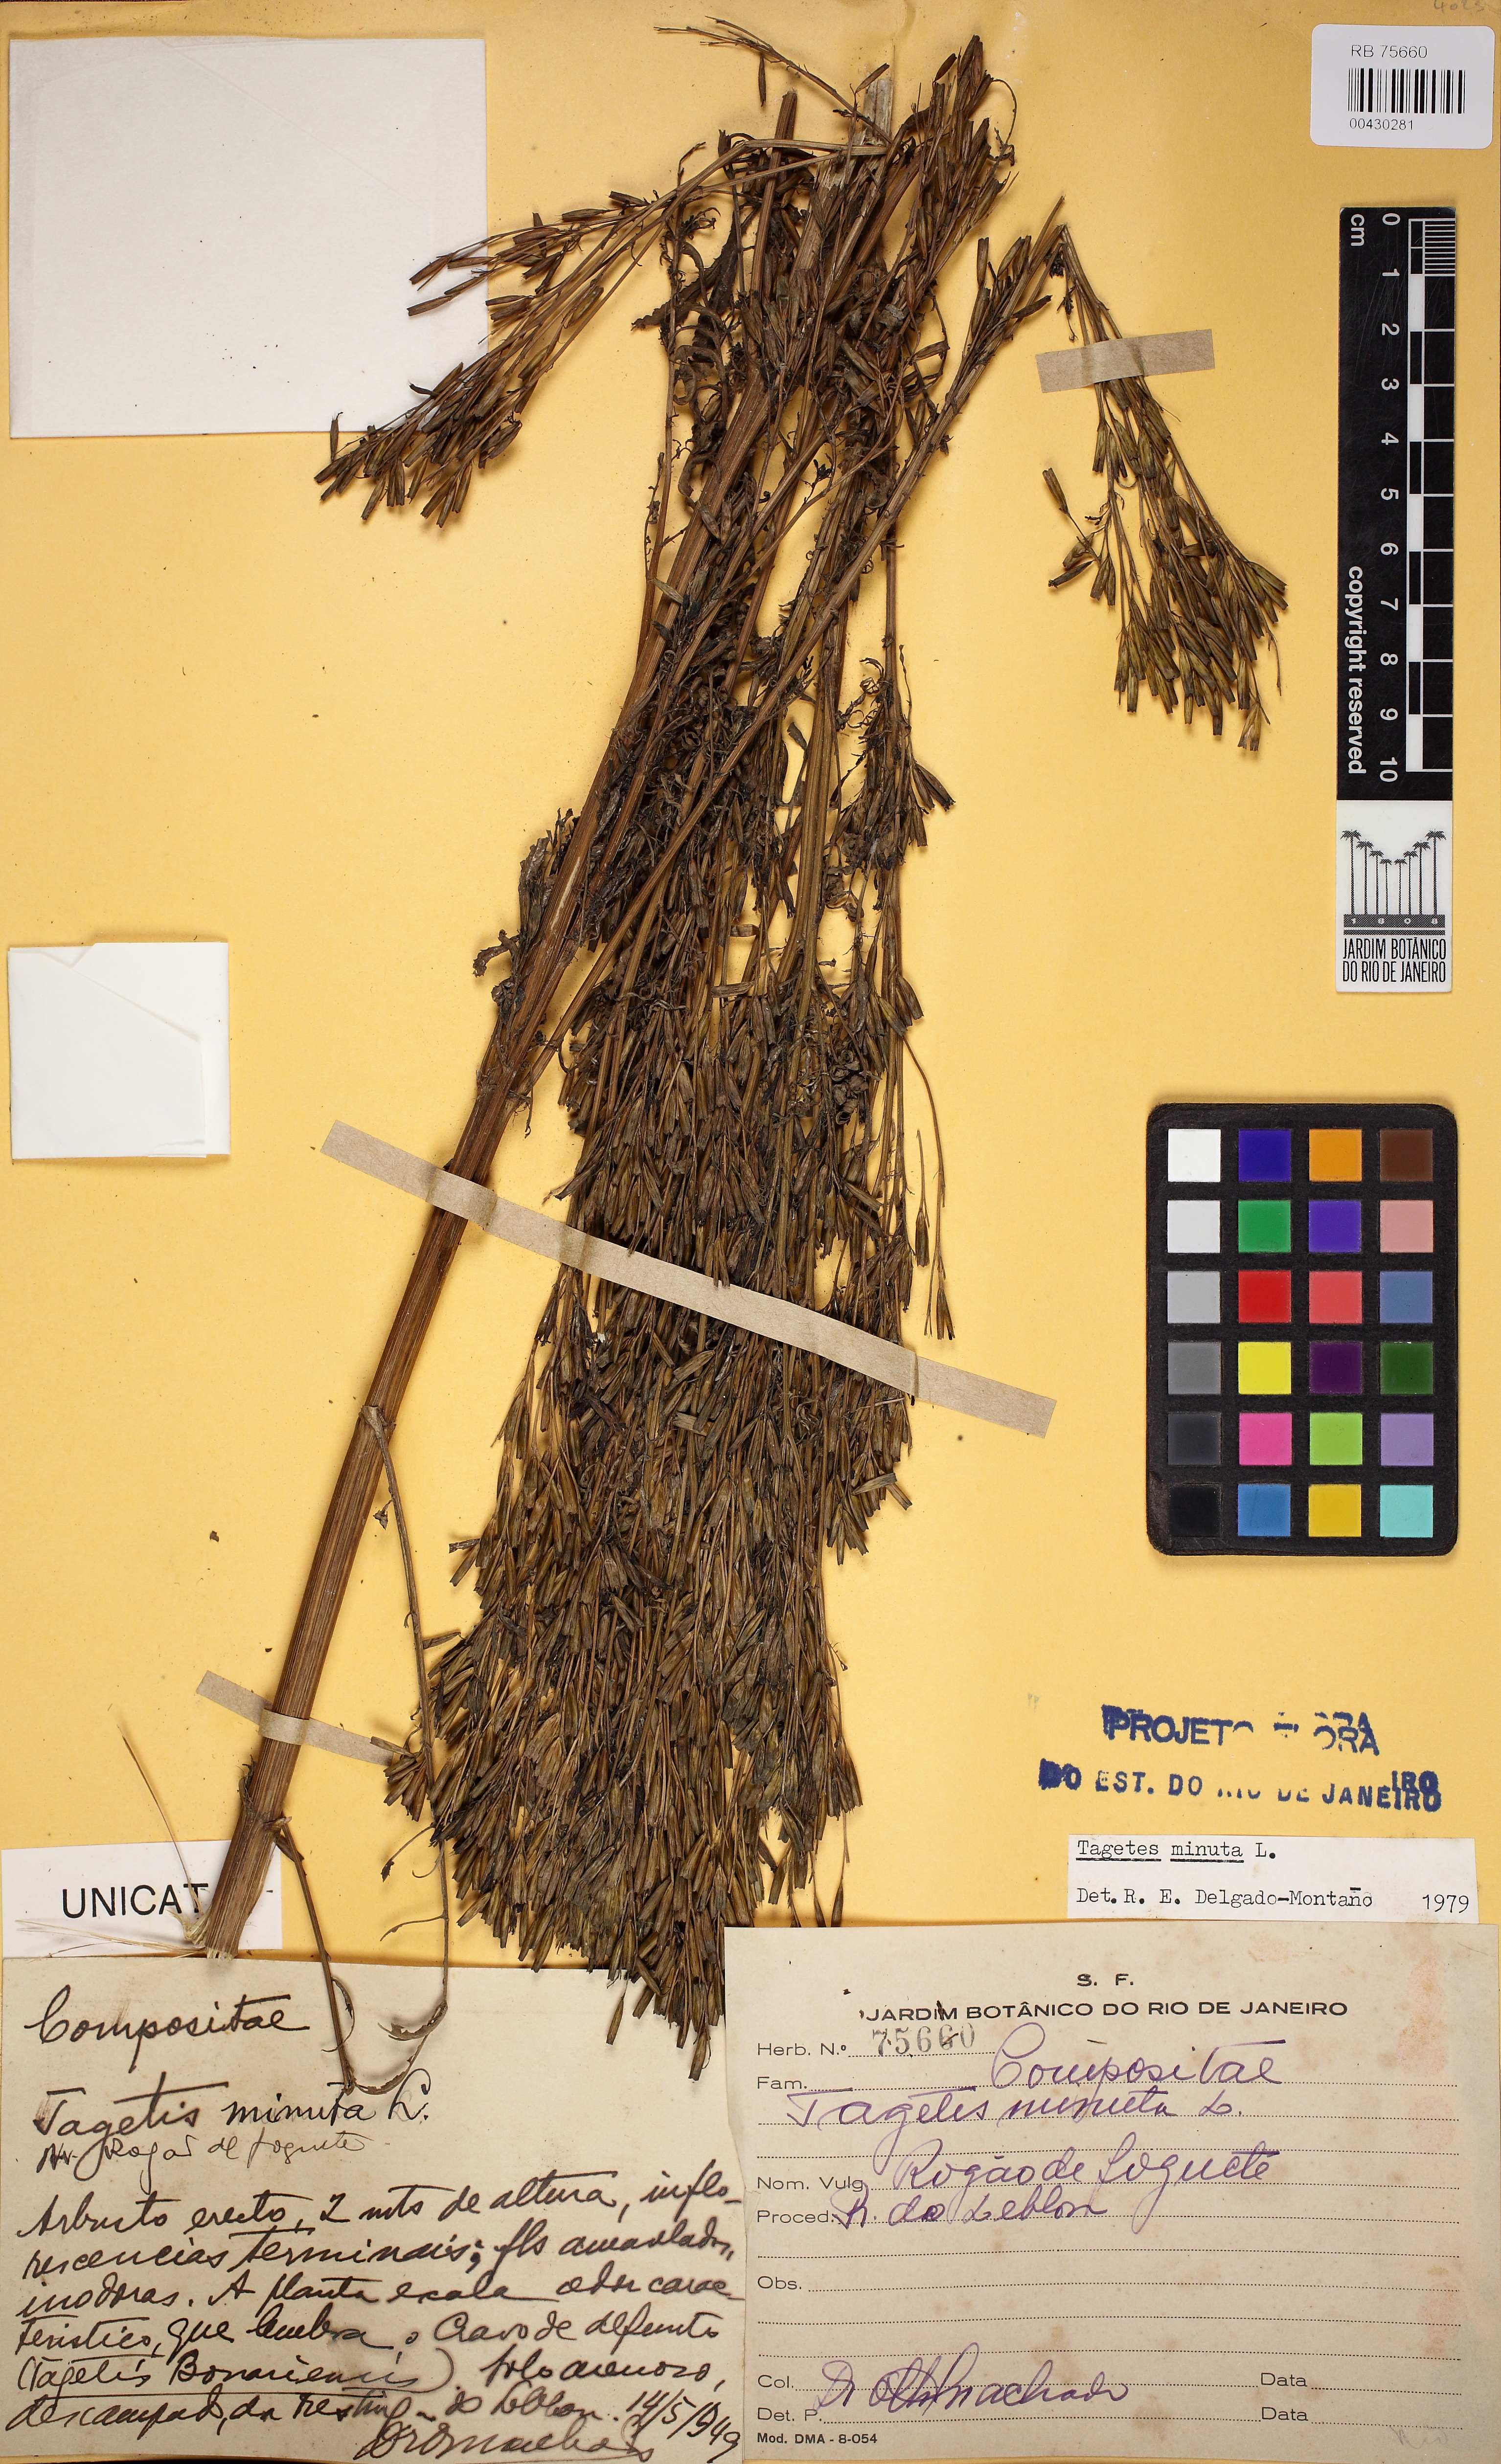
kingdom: Plantae
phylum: Tracheophyta
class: Magnoliopsida
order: Asterales
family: Asteraceae
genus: Tagetes
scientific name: Tagetes minuta
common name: Muster john henry
